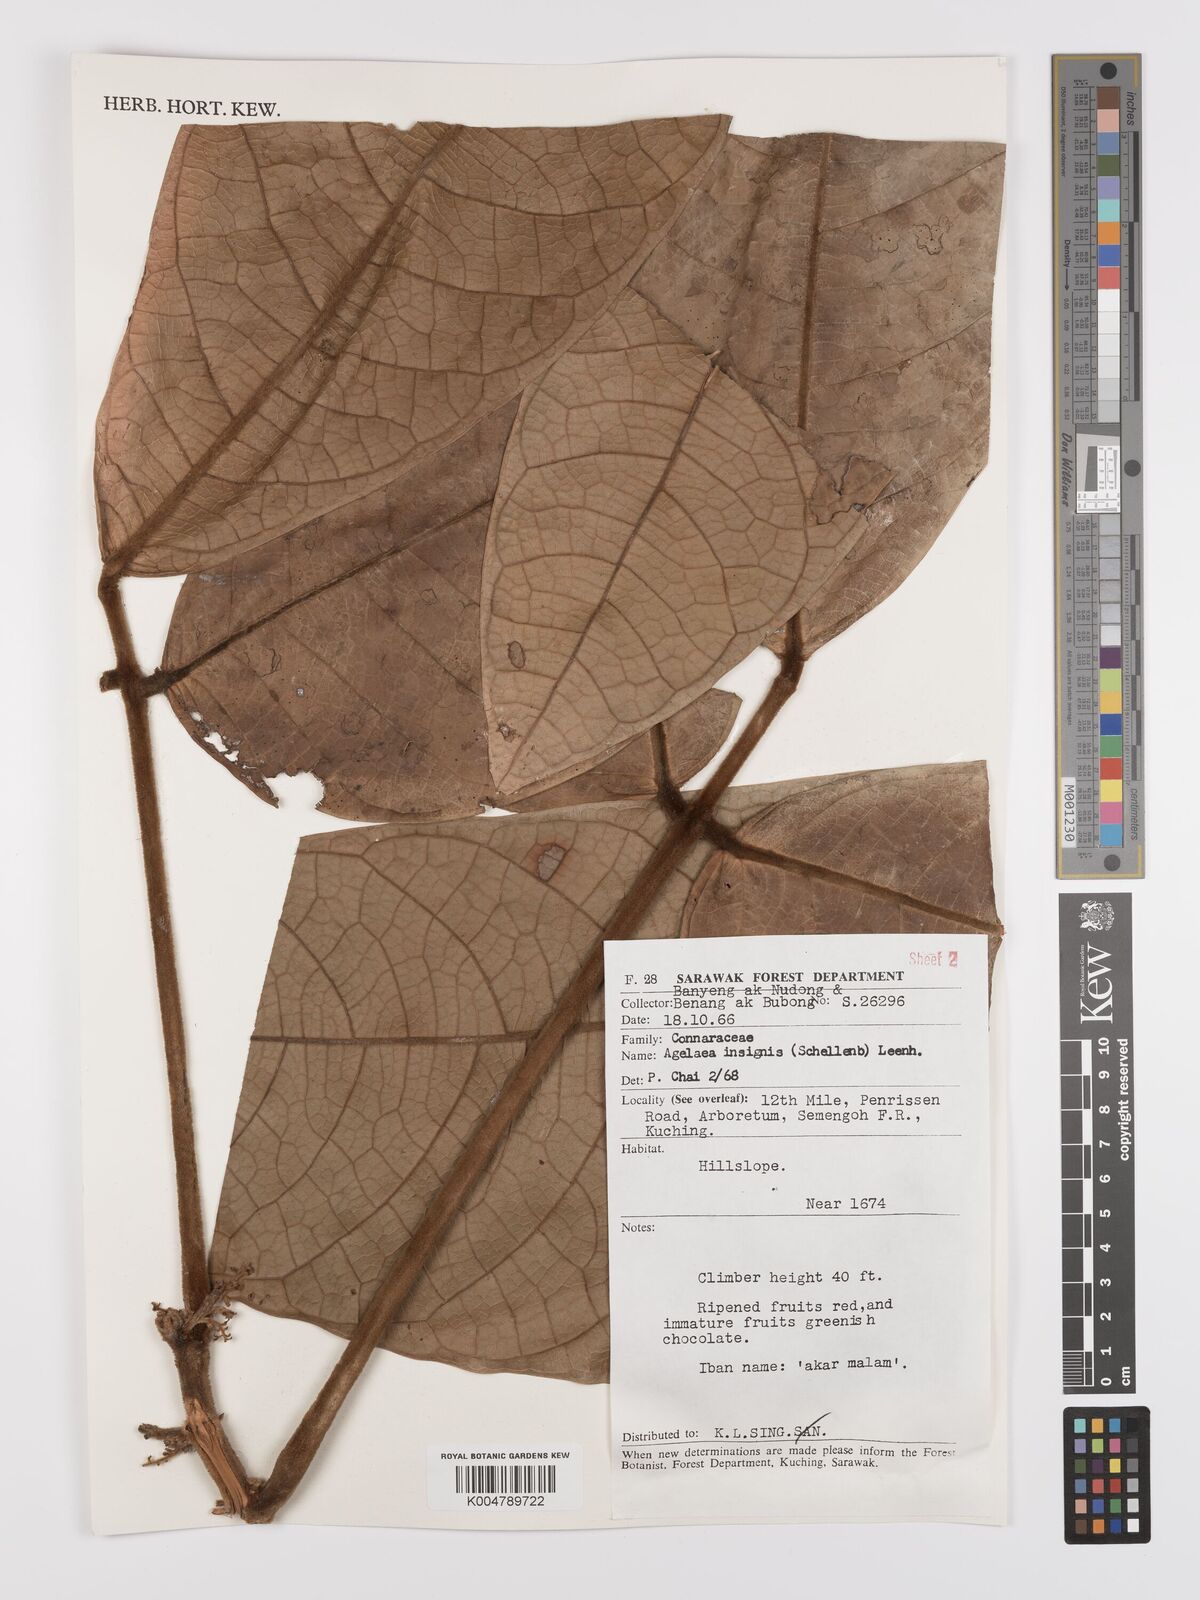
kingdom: Plantae
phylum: Tracheophyta
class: Magnoliopsida
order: Oxalidales
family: Connaraceae
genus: Agelaea
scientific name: Agelaea insignis
